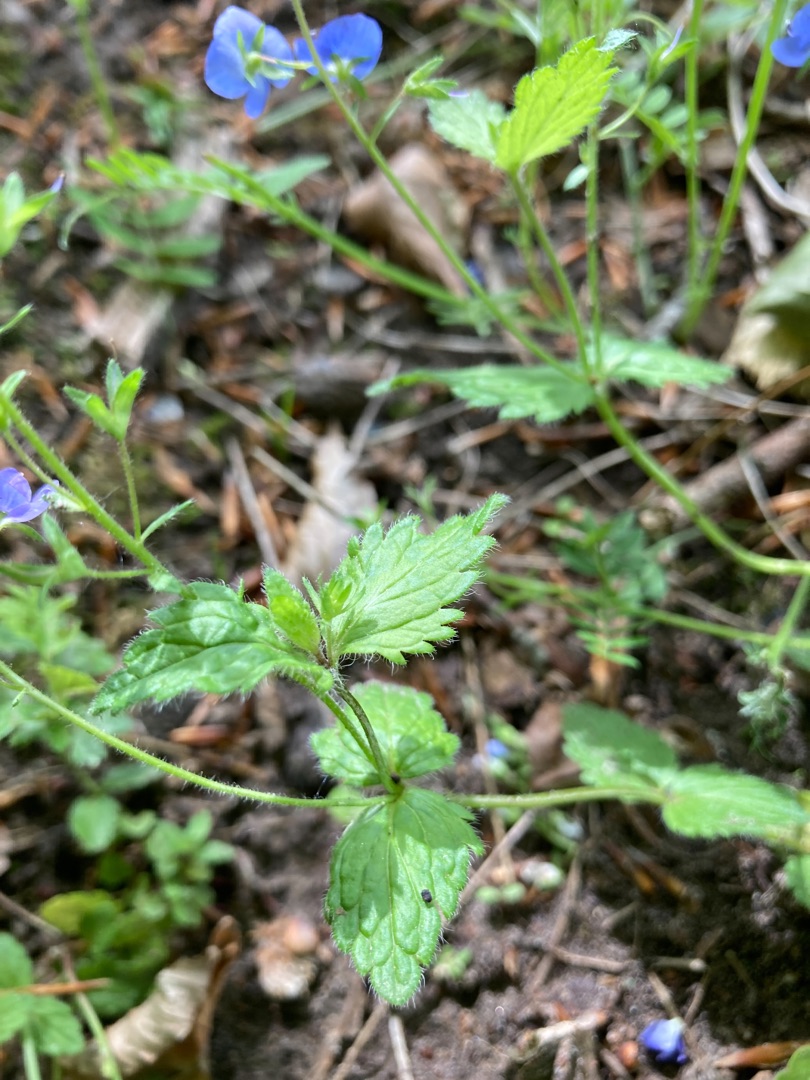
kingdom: Plantae
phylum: Tracheophyta
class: Magnoliopsida
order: Lamiales
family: Plantaginaceae
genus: Veronica
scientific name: Veronica chamaedrys
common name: Tveskægget ærenpris
